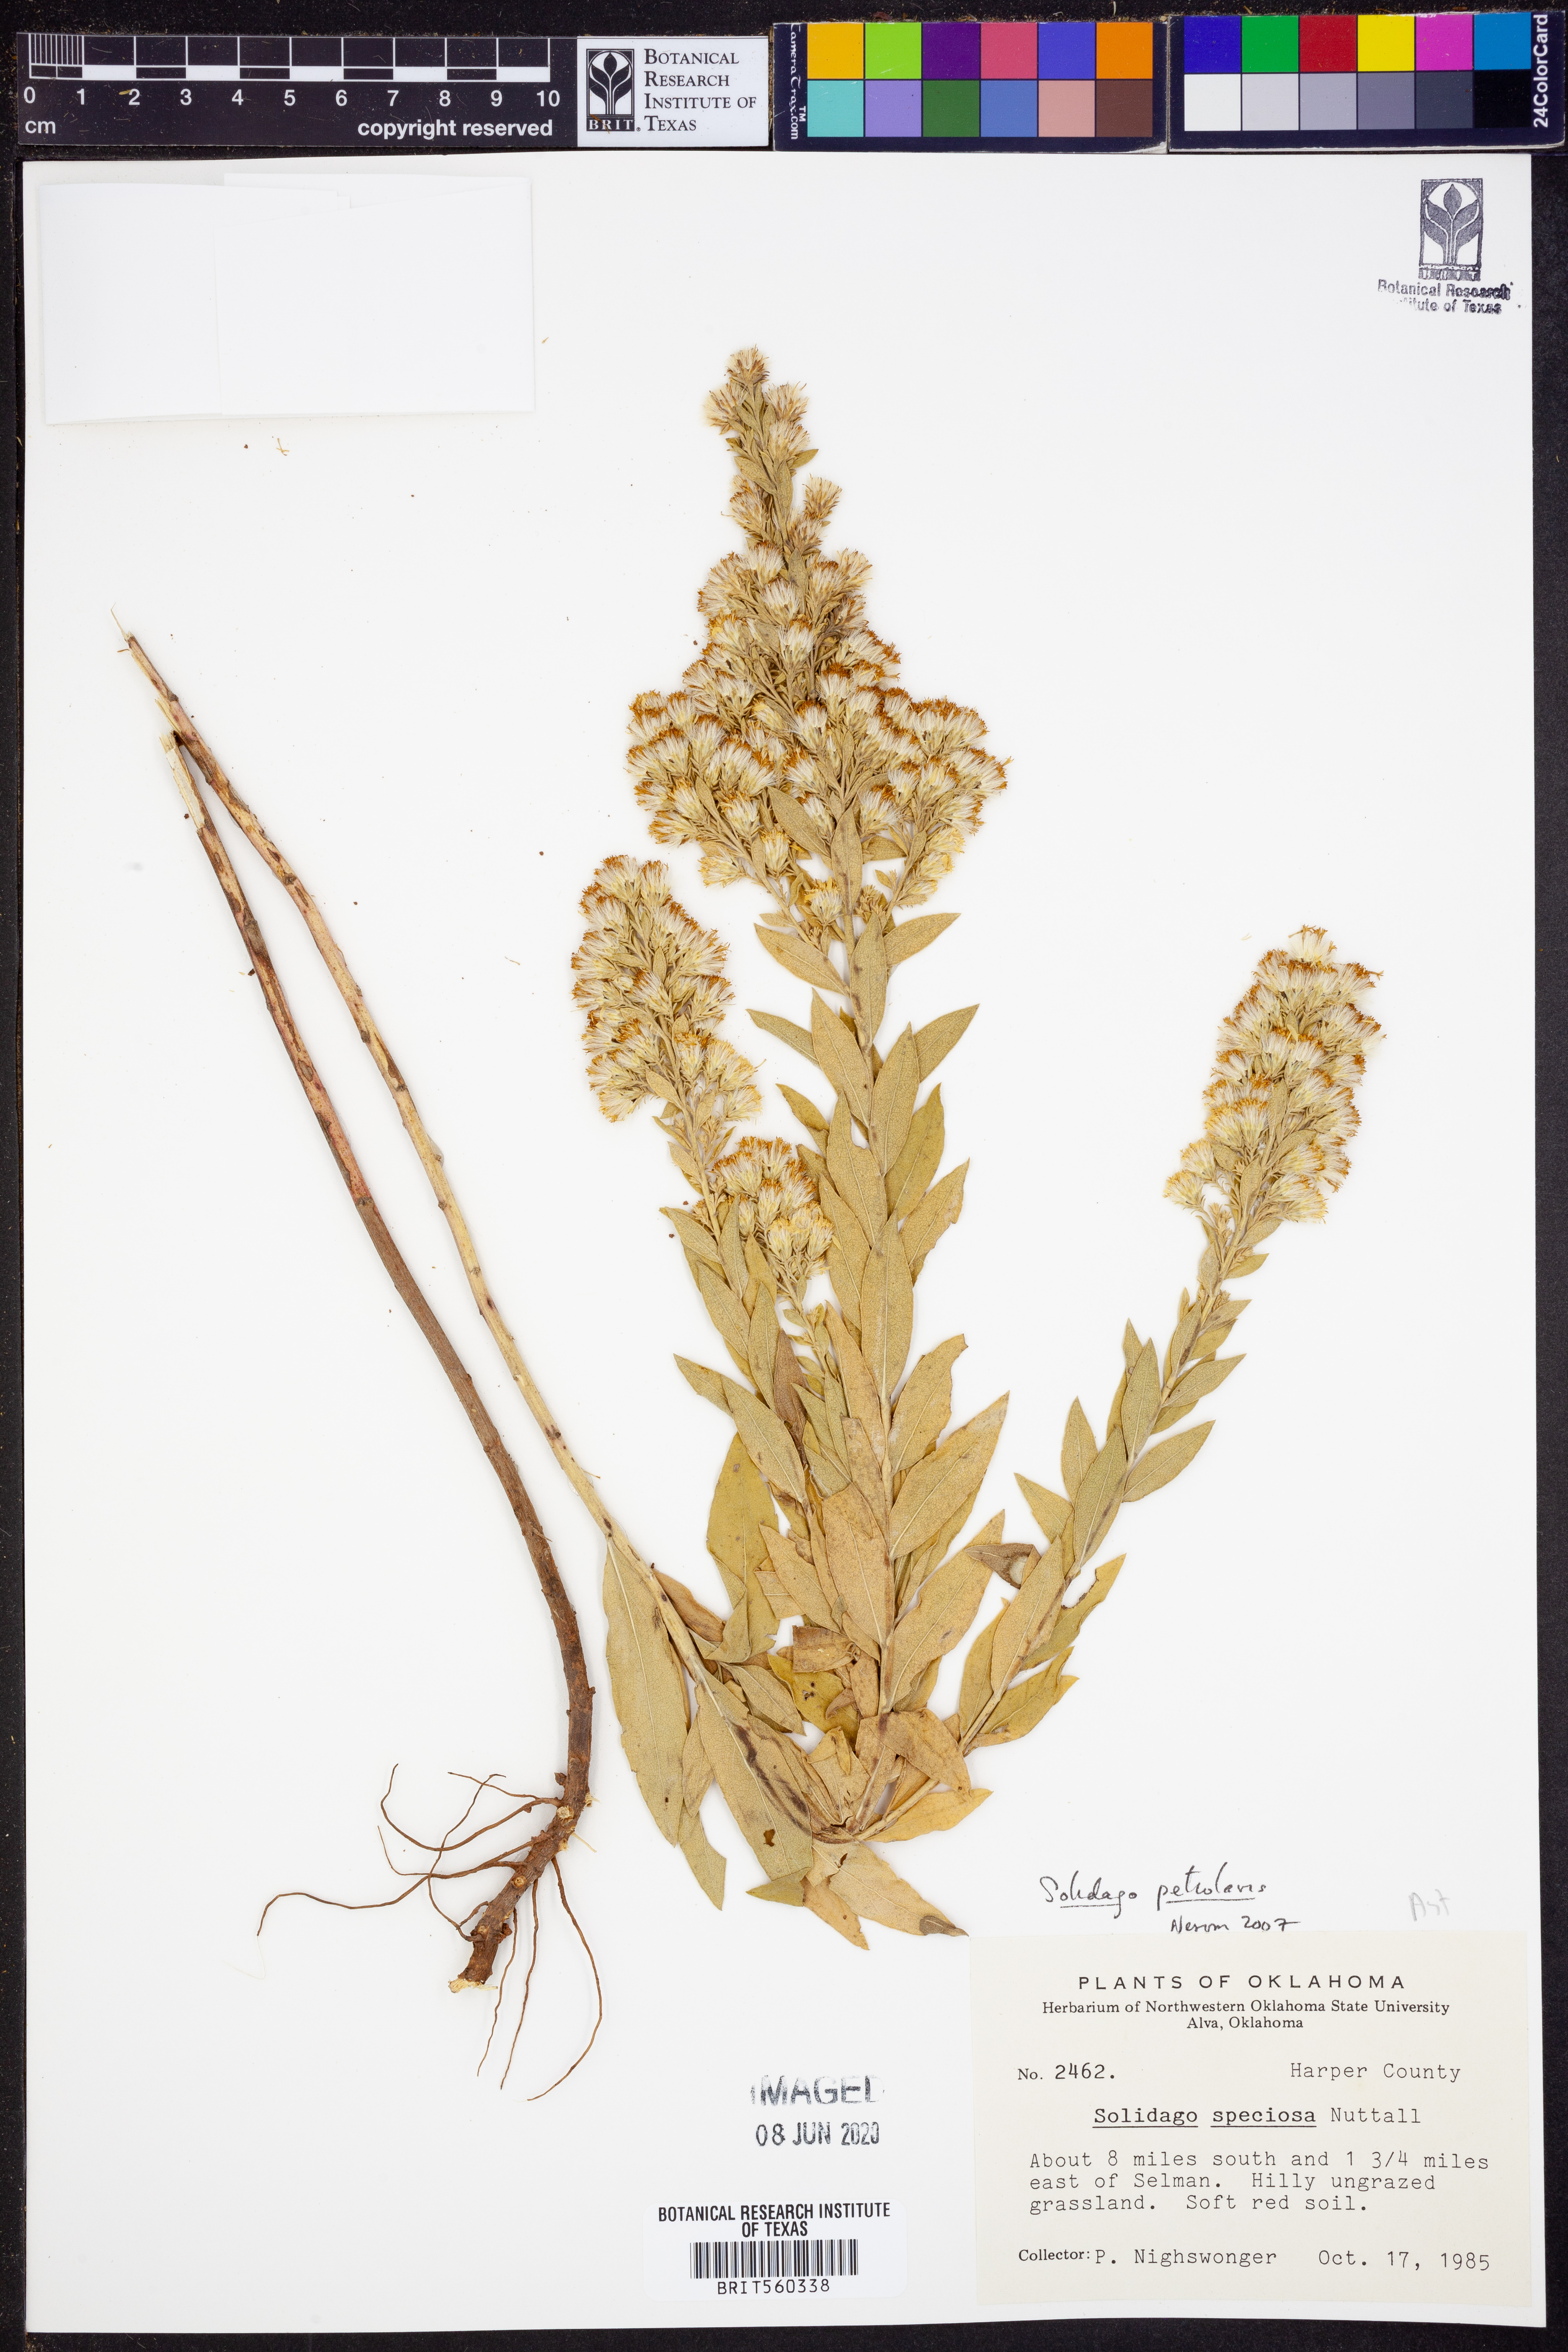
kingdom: Plantae
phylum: Tracheophyta
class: Magnoliopsida
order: Asterales
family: Asteraceae
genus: Solidago
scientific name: Solidago petiolaris
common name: Downy ragged goldenrod
